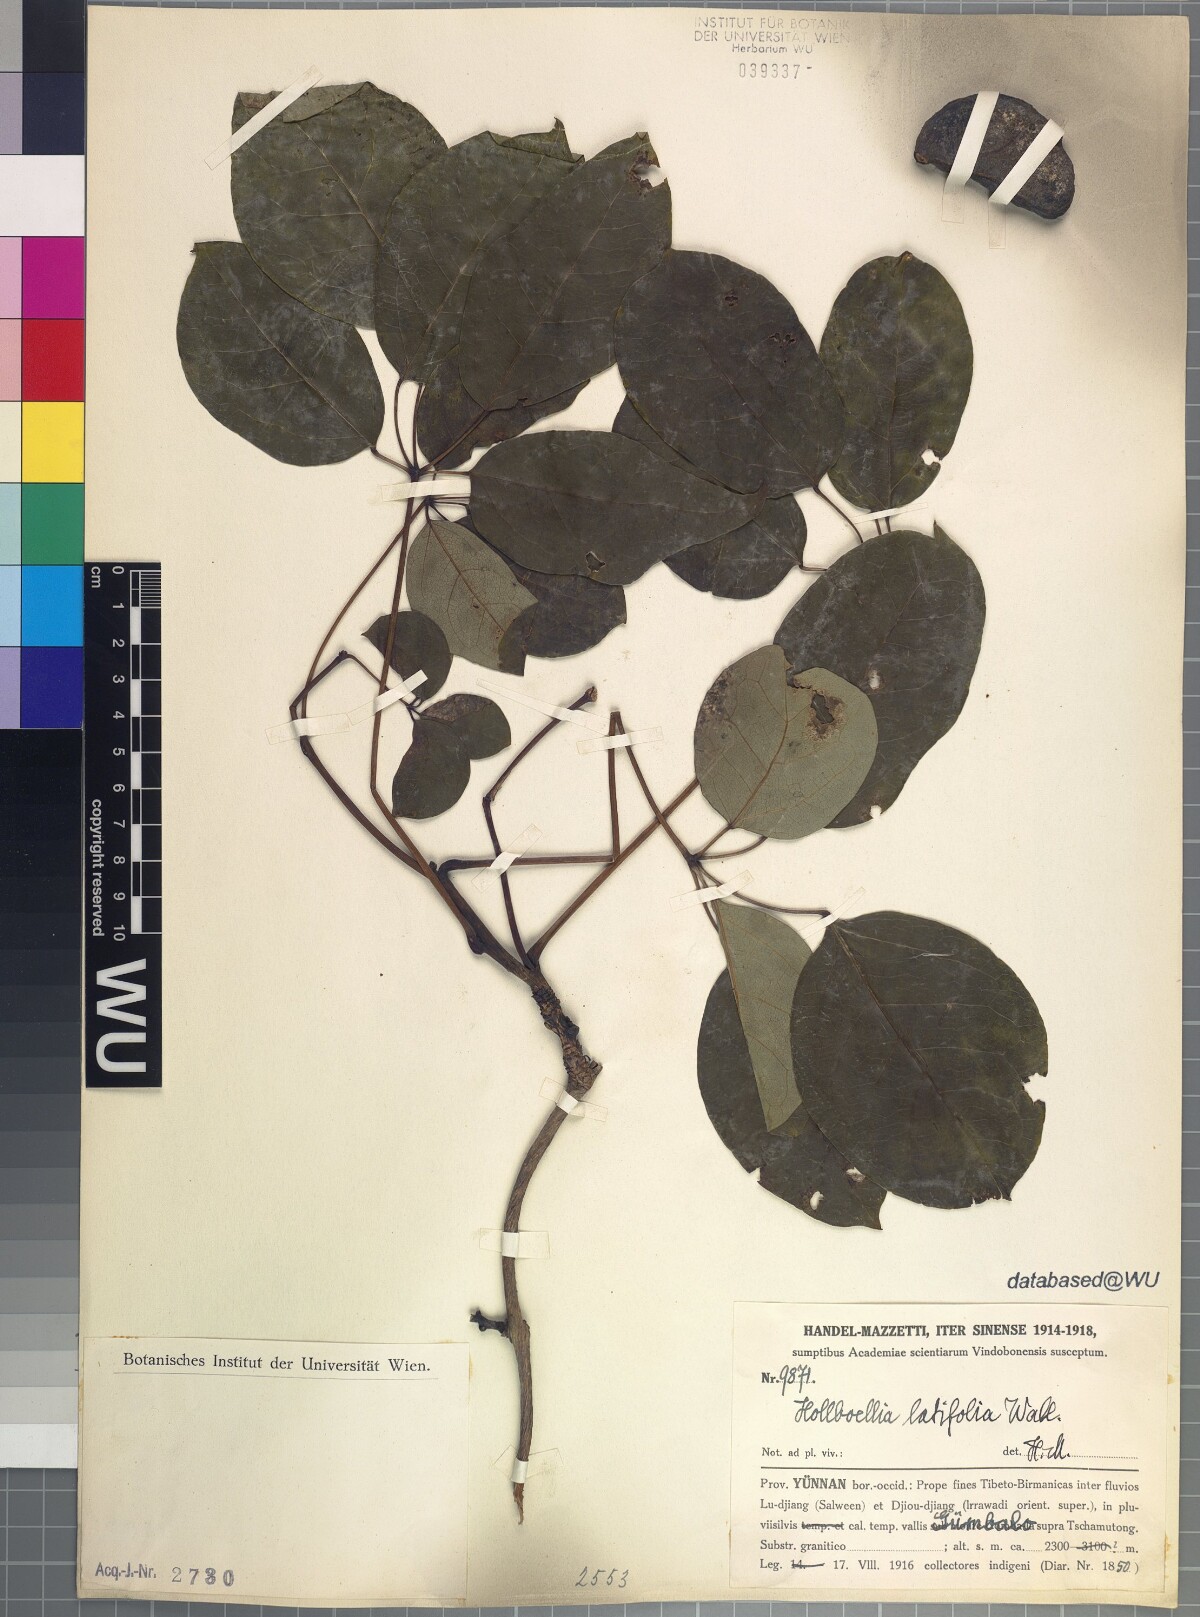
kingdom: Plantae
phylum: Tracheophyta
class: Magnoliopsida
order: Ranunculales
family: Lardizabalaceae
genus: Stauntonia
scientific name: Stauntonia latifolia
